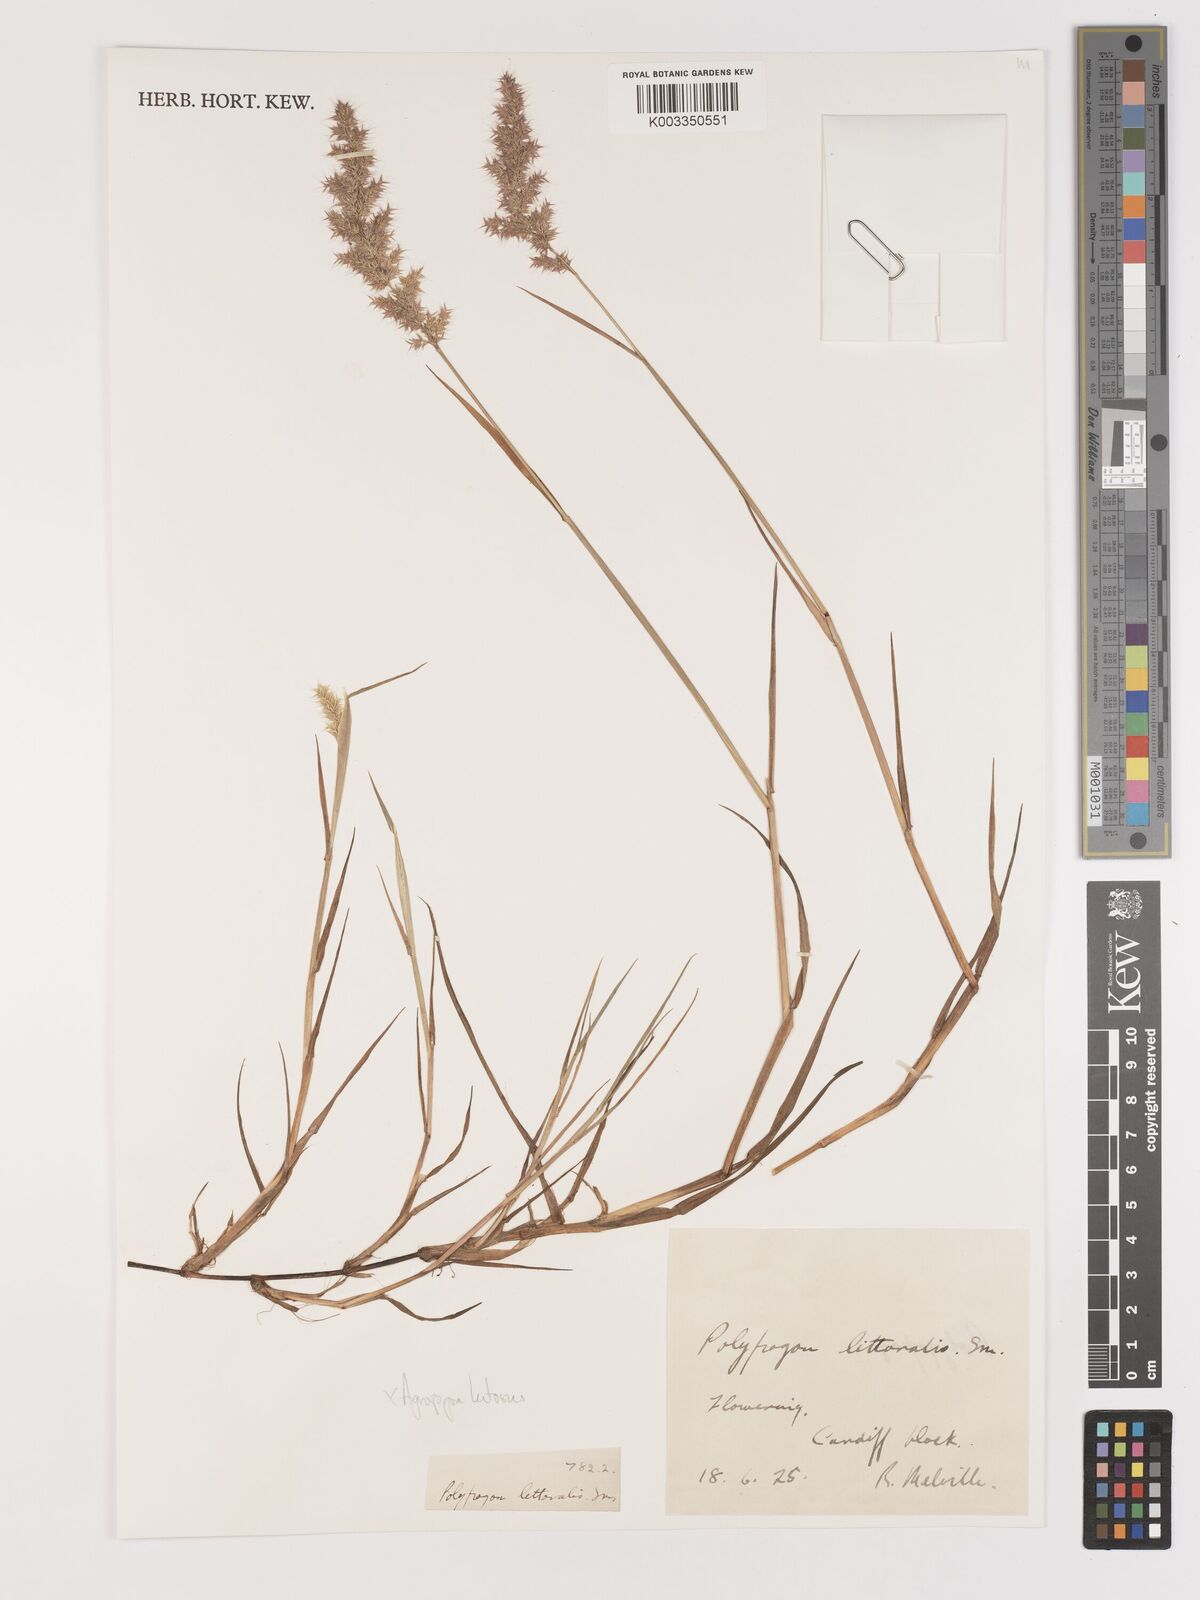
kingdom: Plantae
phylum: Tracheophyta
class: Liliopsida
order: Poales
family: Poaceae
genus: Agropogon
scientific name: Agropogon lutosus
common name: Coast agropogon
